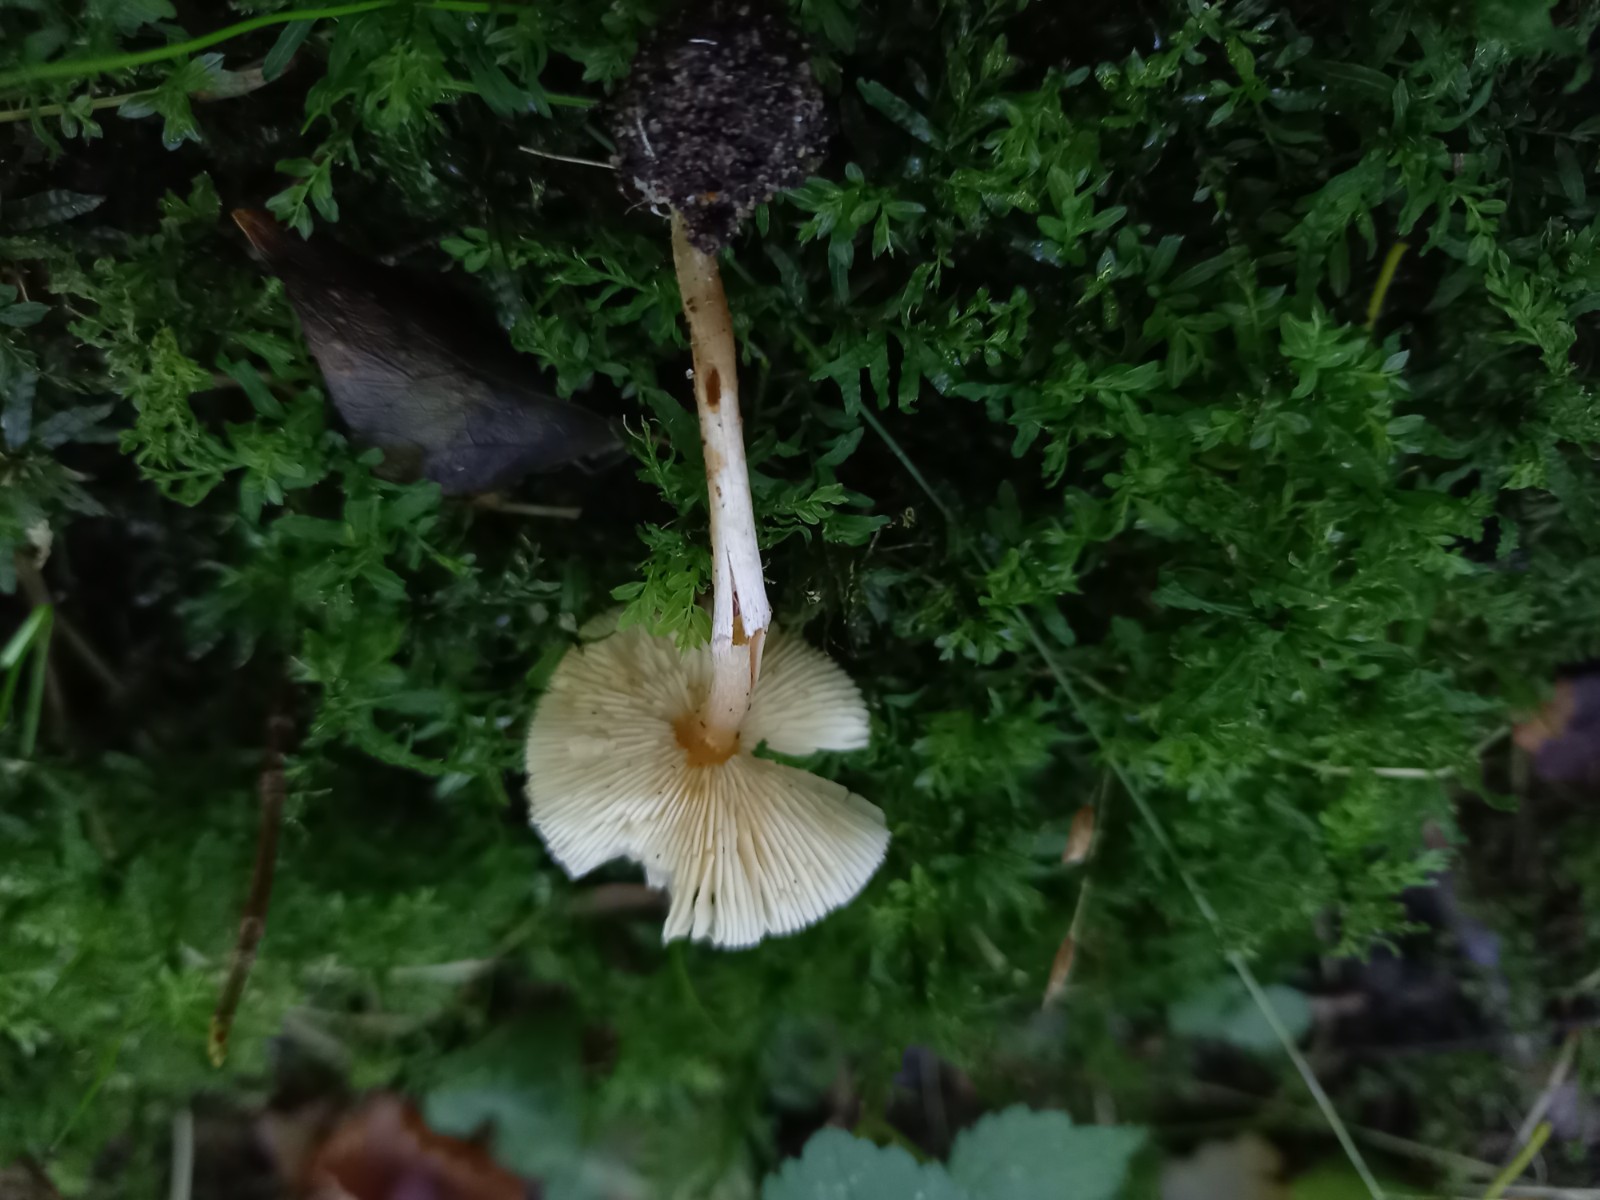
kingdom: Fungi
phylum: Basidiomycota
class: Agaricomycetes
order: Agaricales
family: Agaricaceae
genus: Lepiota
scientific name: Lepiota cristata
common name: stinkende parasolhat
